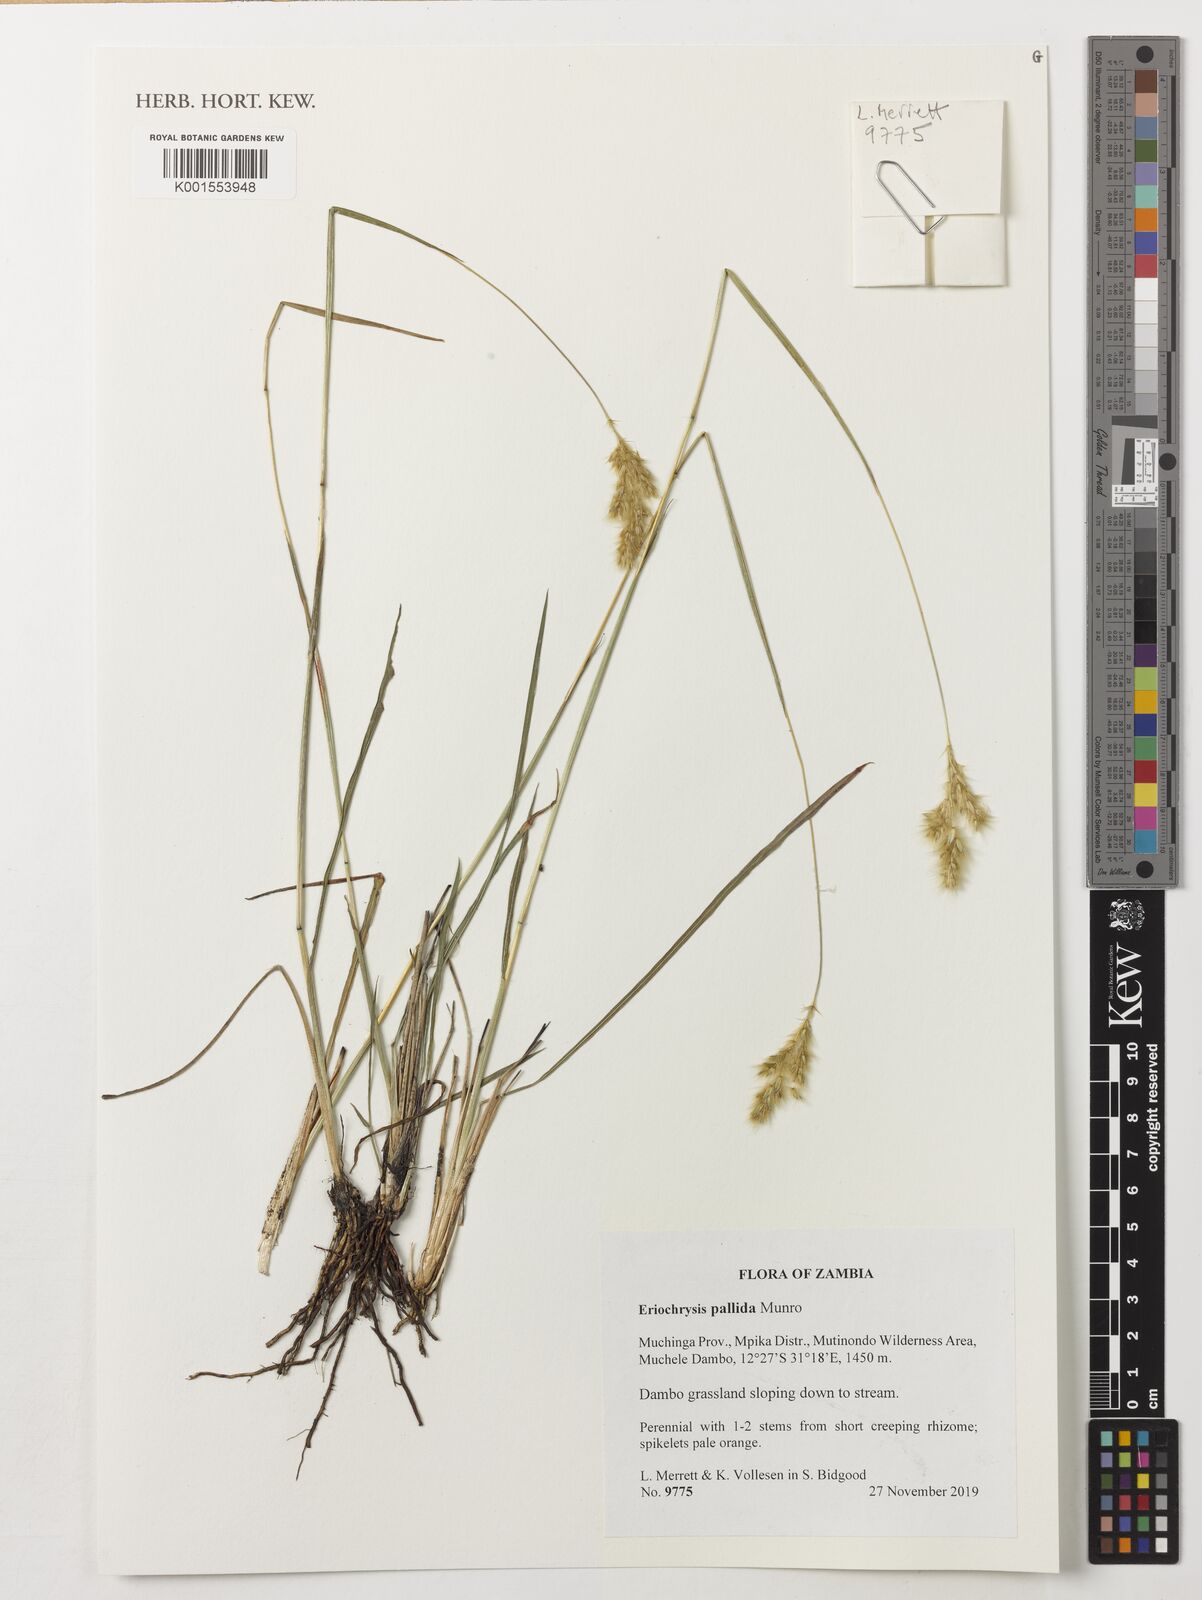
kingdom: Plantae
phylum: Tracheophyta
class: Liliopsida
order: Poales
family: Poaceae
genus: Eriochrysis
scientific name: Eriochrysis pallida
